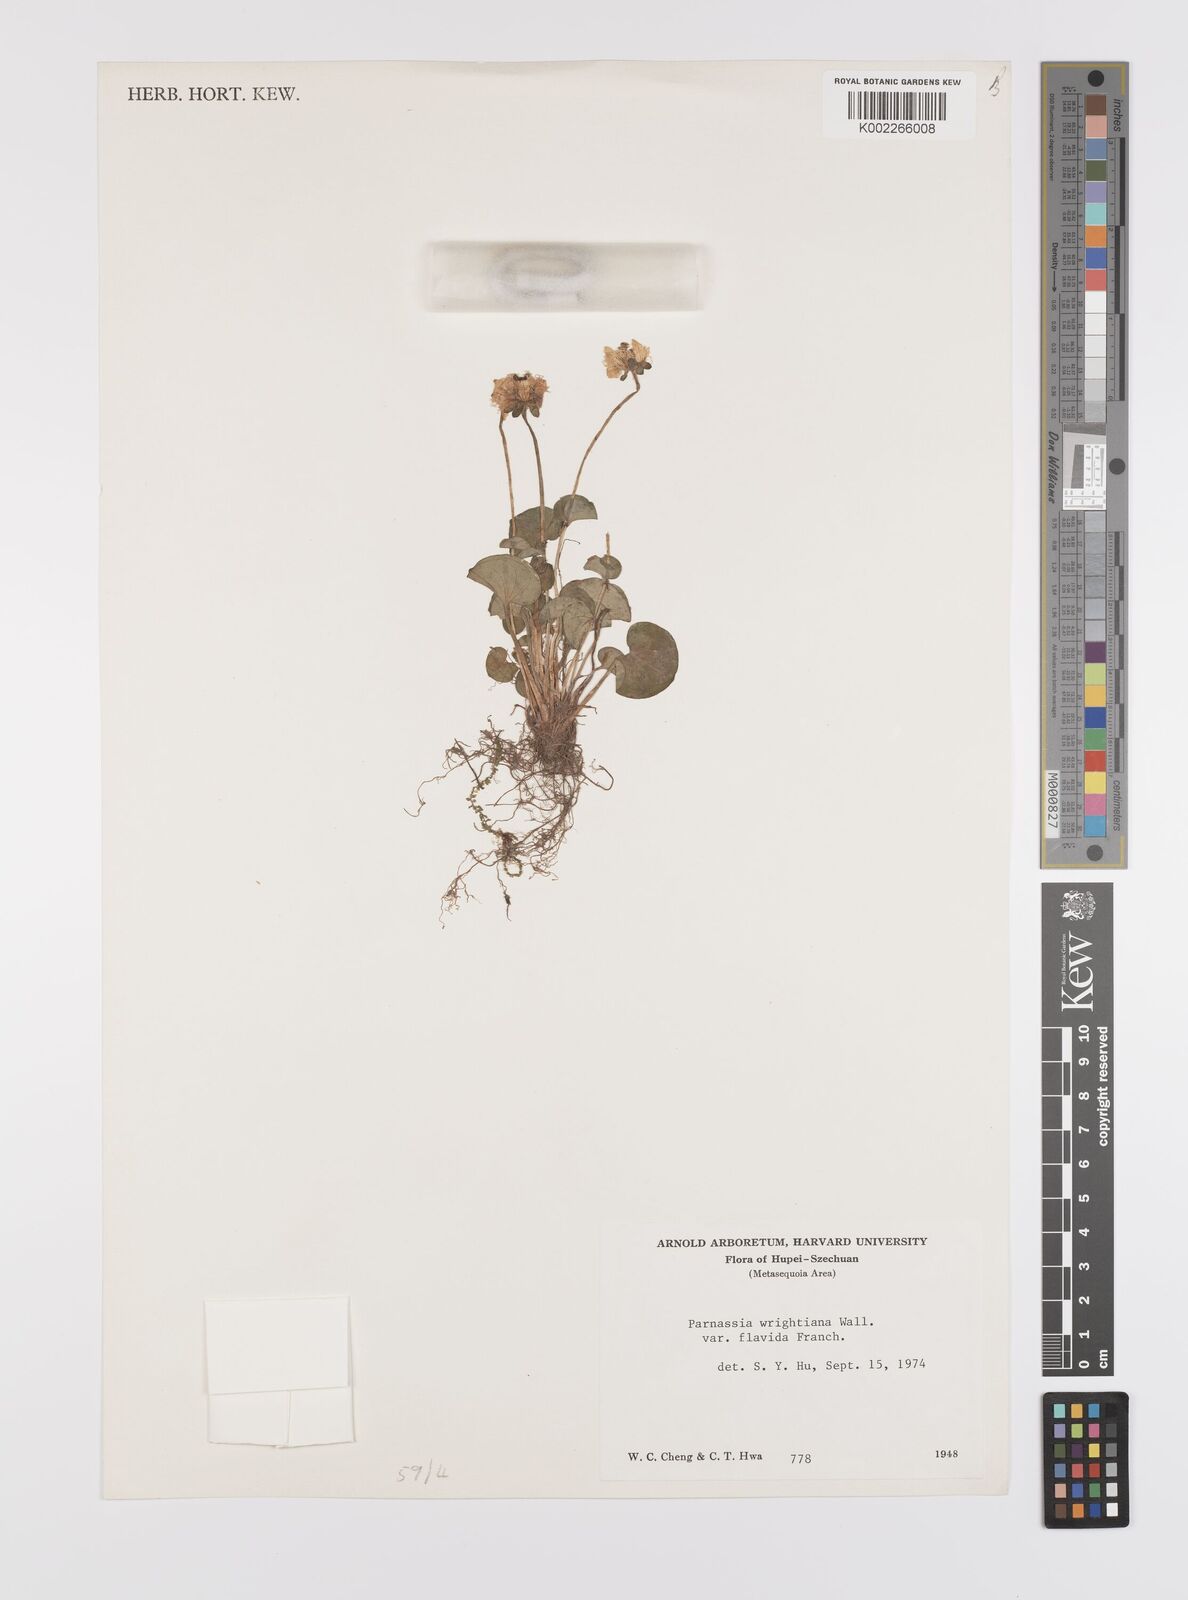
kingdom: Plantae
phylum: Tracheophyta
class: Magnoliopsida
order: Celastrales
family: Parnassiaceae
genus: Parnassia
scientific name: Parnassia wightiana
